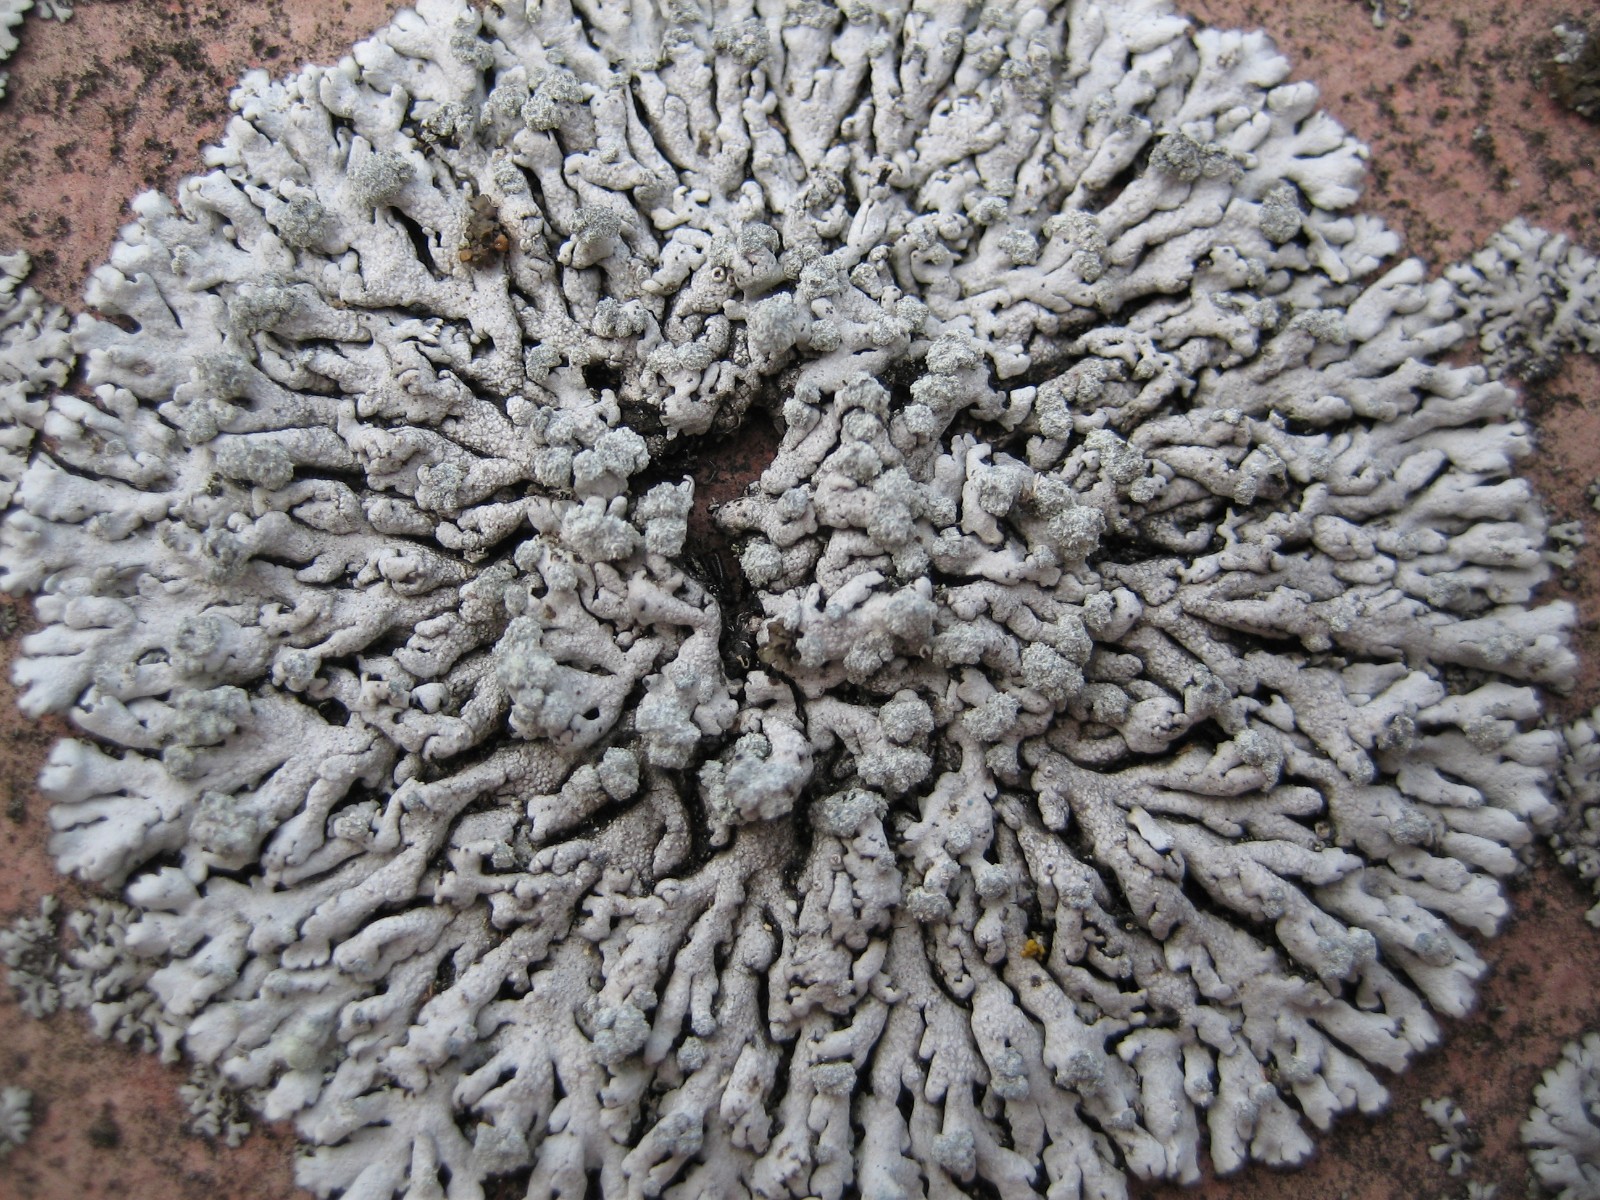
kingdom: Fungi
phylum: Ascomycota
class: Lecanoromycetes
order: Caliciales
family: Physciaceae
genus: Physcia
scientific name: Physcia caesia
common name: blågrå rosetlav
